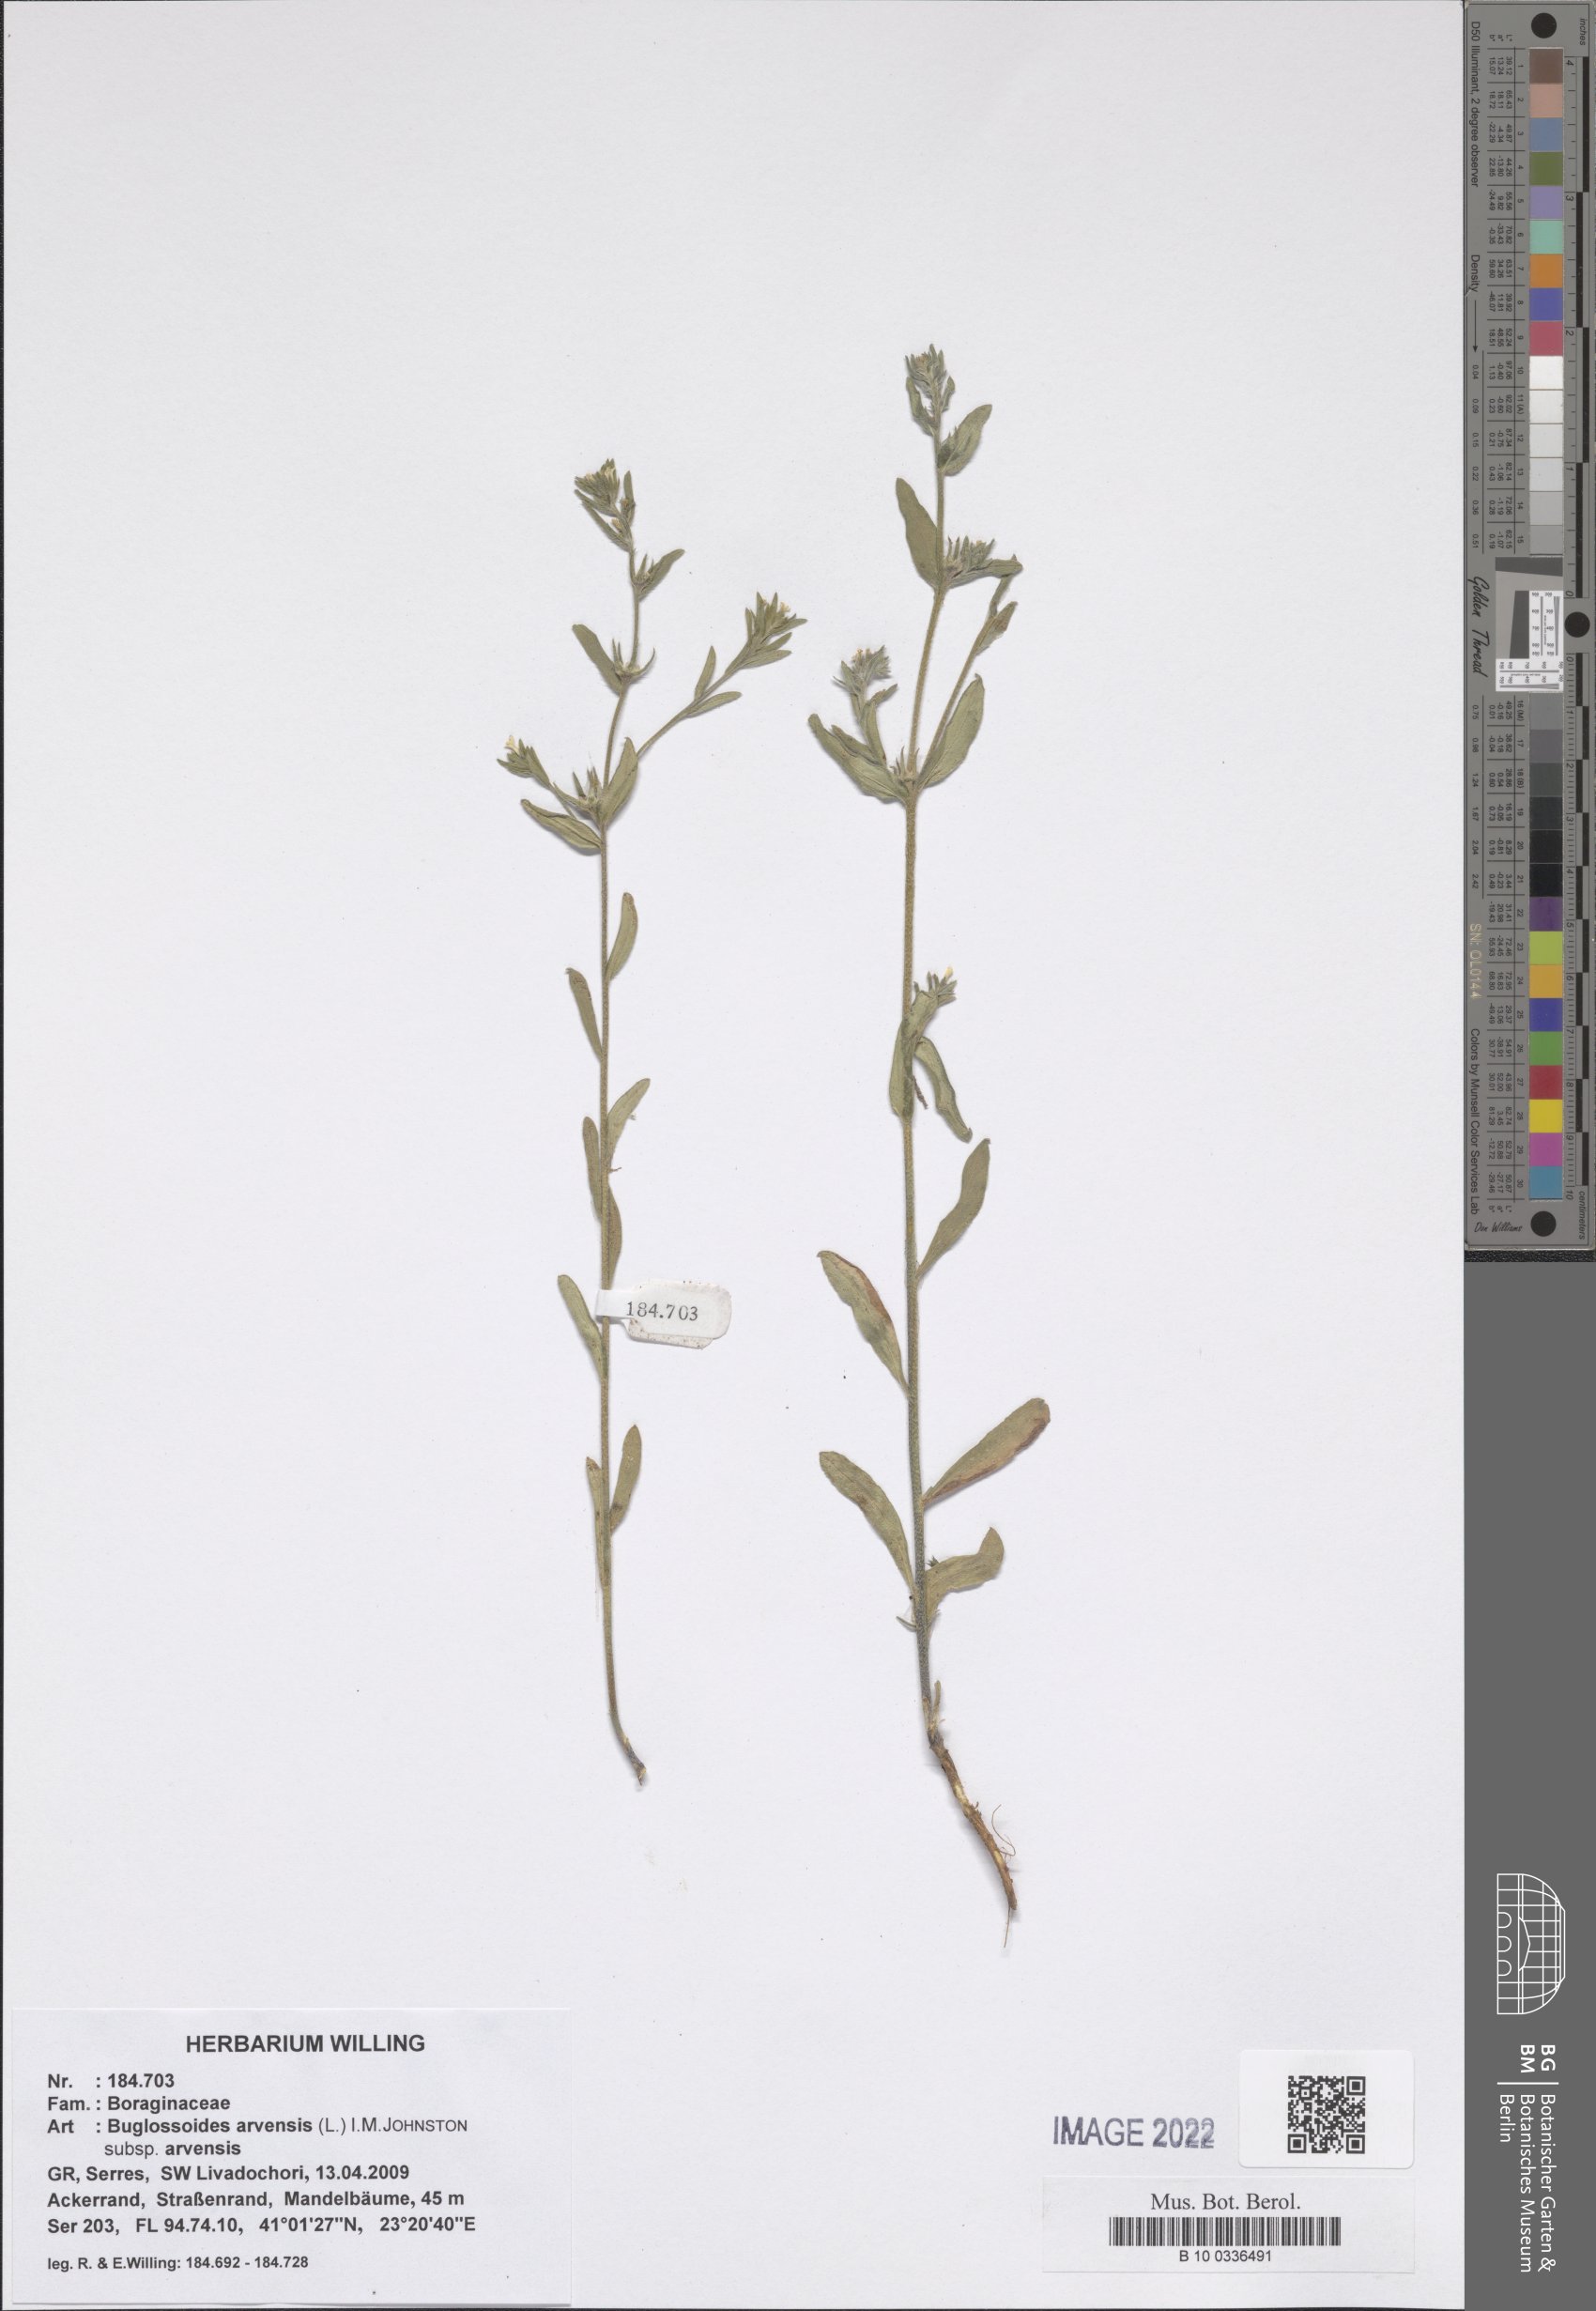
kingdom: Plantae
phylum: Tracheophyta
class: Magnoliopsida
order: Boraginales
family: Boraginaceae
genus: Buglossoides
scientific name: Buglossoides arvensis
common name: Corn gromwell
